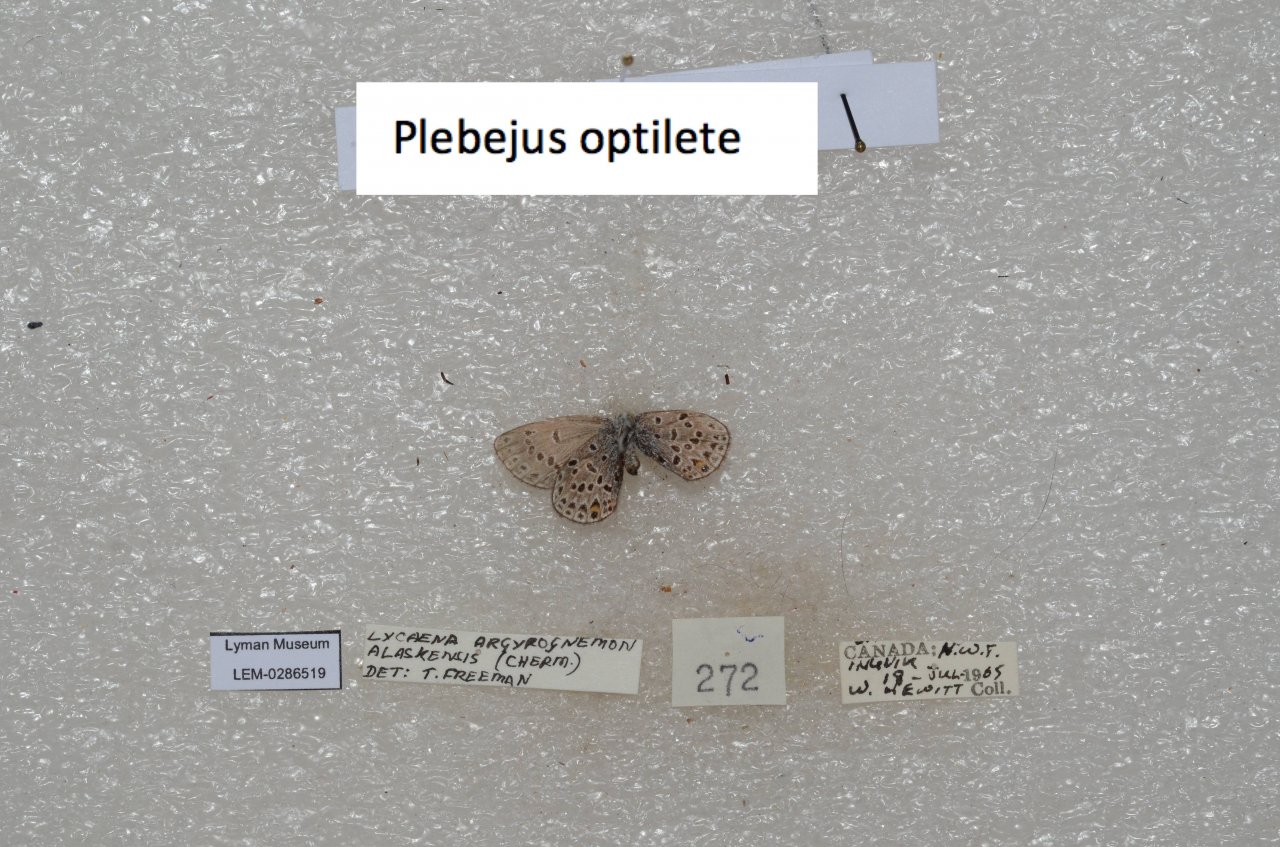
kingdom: Animalia
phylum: Arthropoda
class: Insecta
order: Lepidoptera
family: Lycaenidae
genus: Vacciniina
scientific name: Vacciniina optilete
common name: Cranberry Blue
